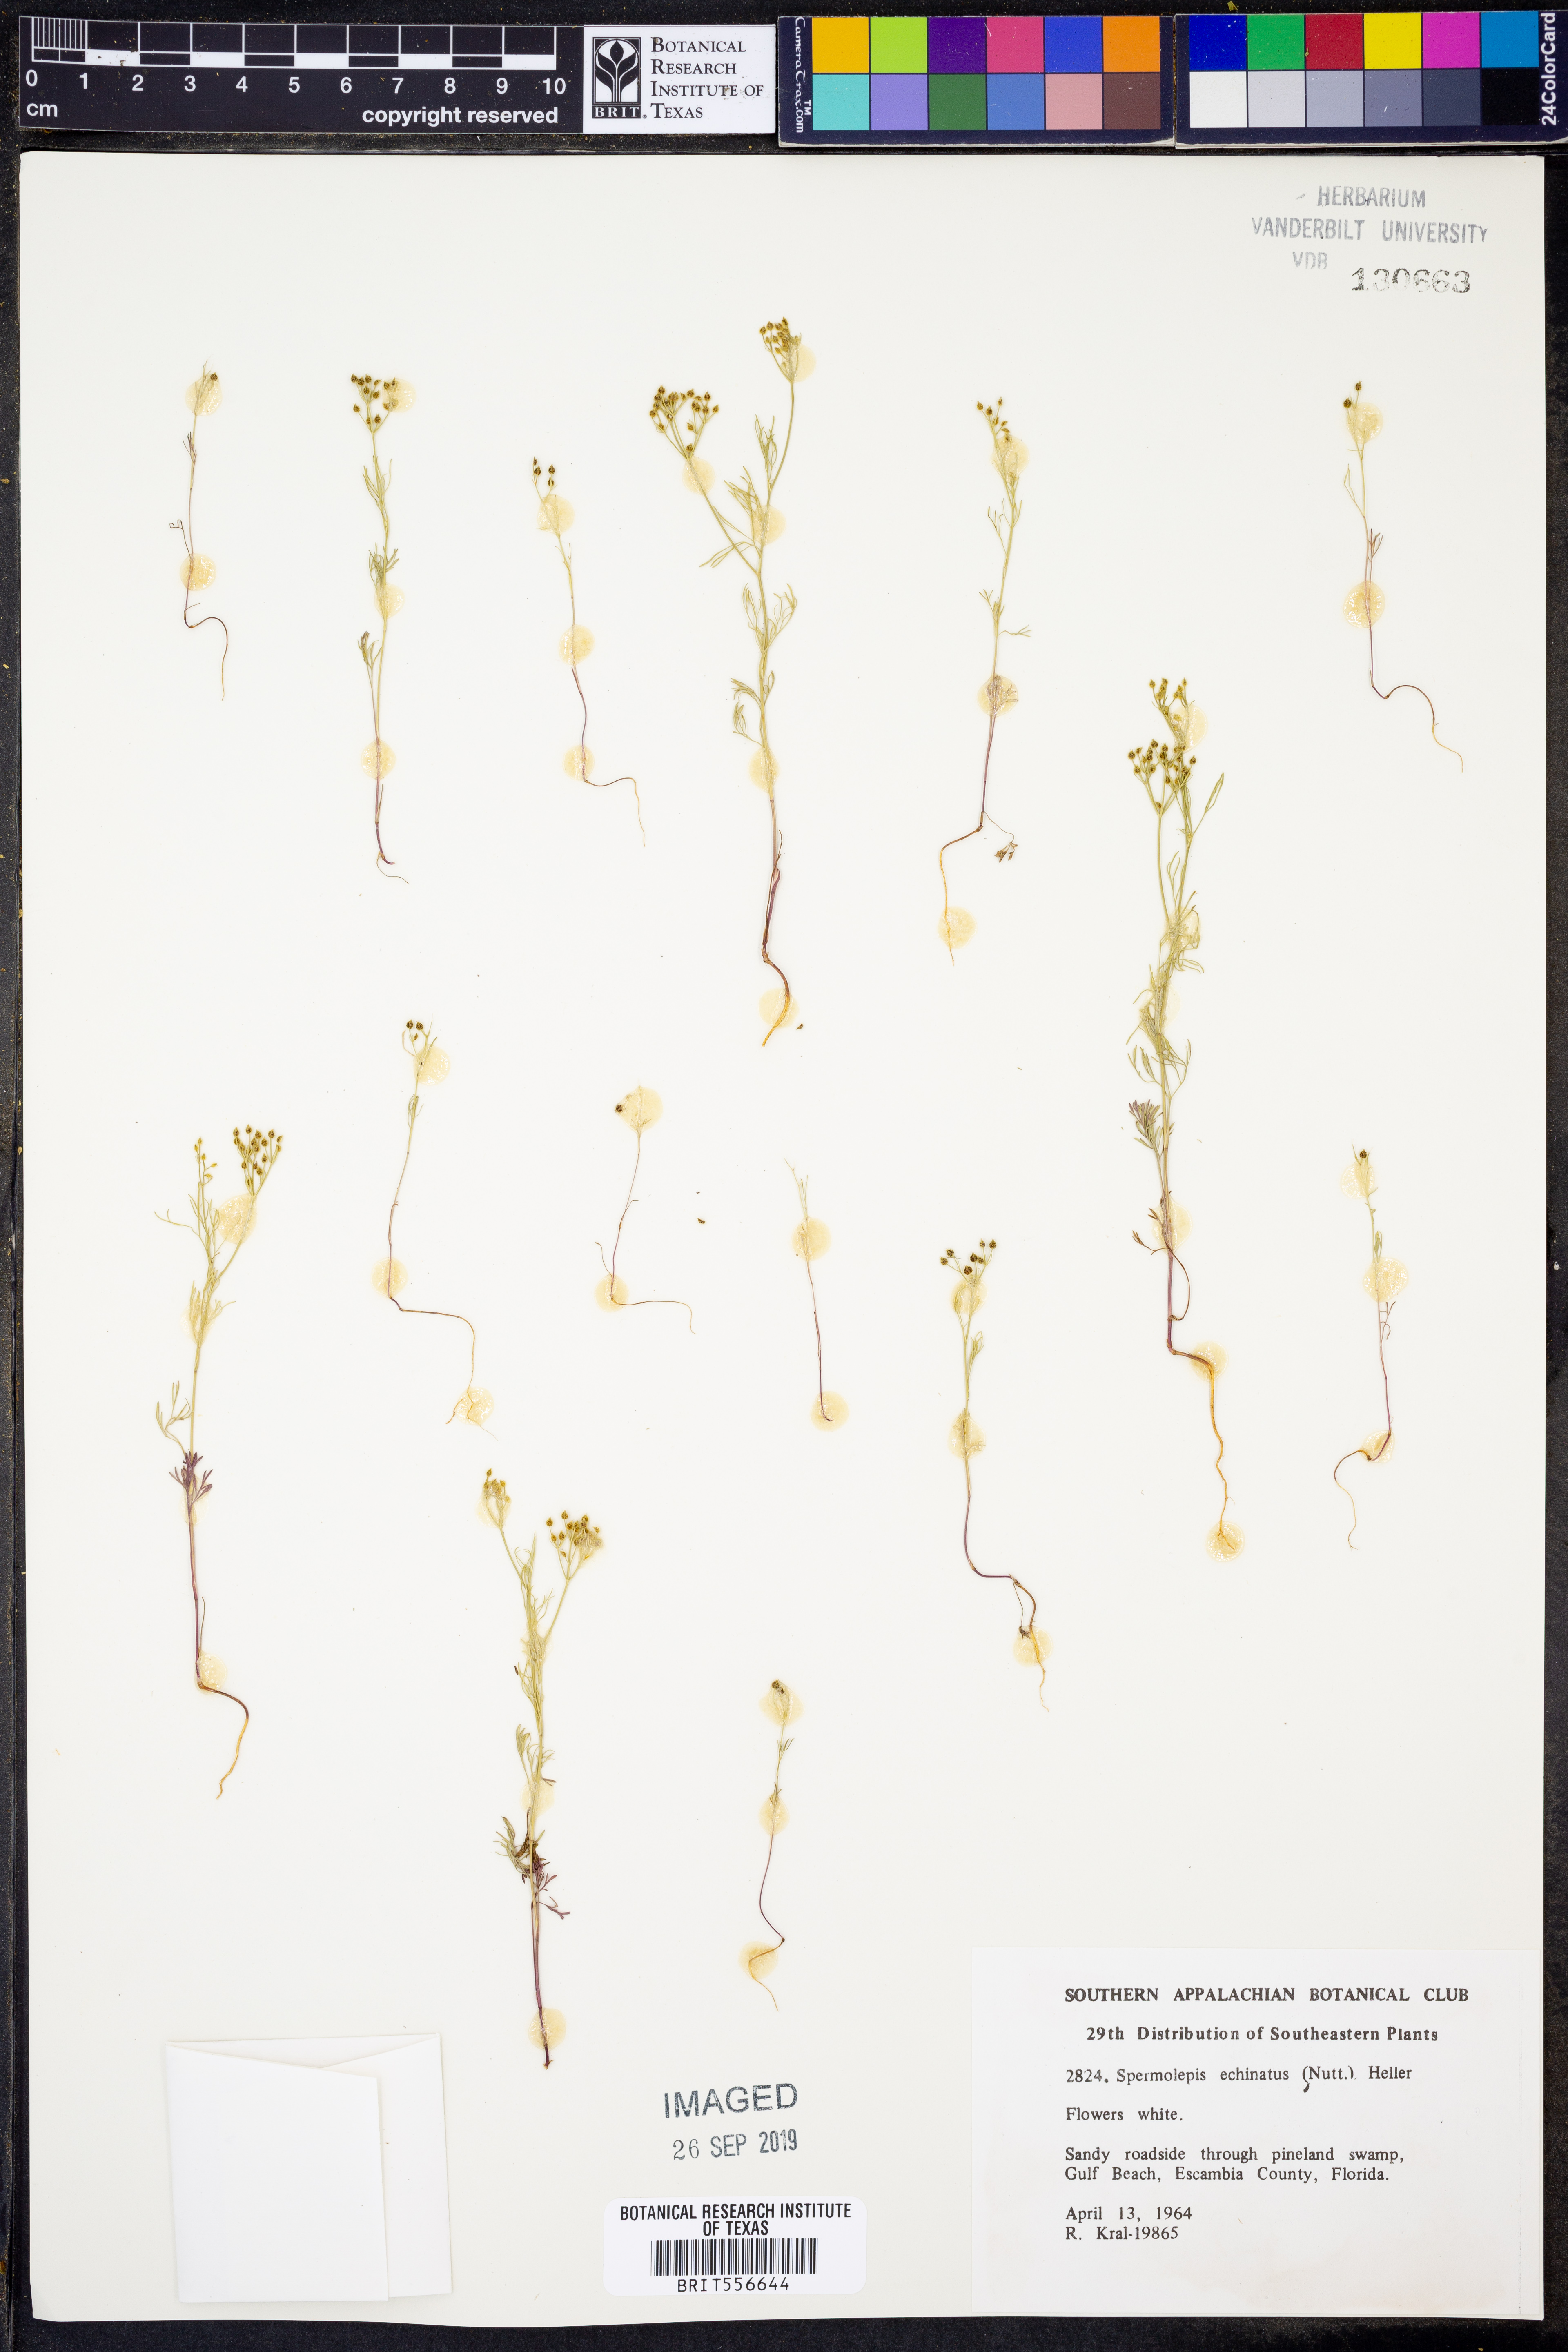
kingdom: Plantae
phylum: Tracheophyta
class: Magnoliopsida
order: Apiales
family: Apiaceae
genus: Spermolepis
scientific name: Spermolepis echinatus
